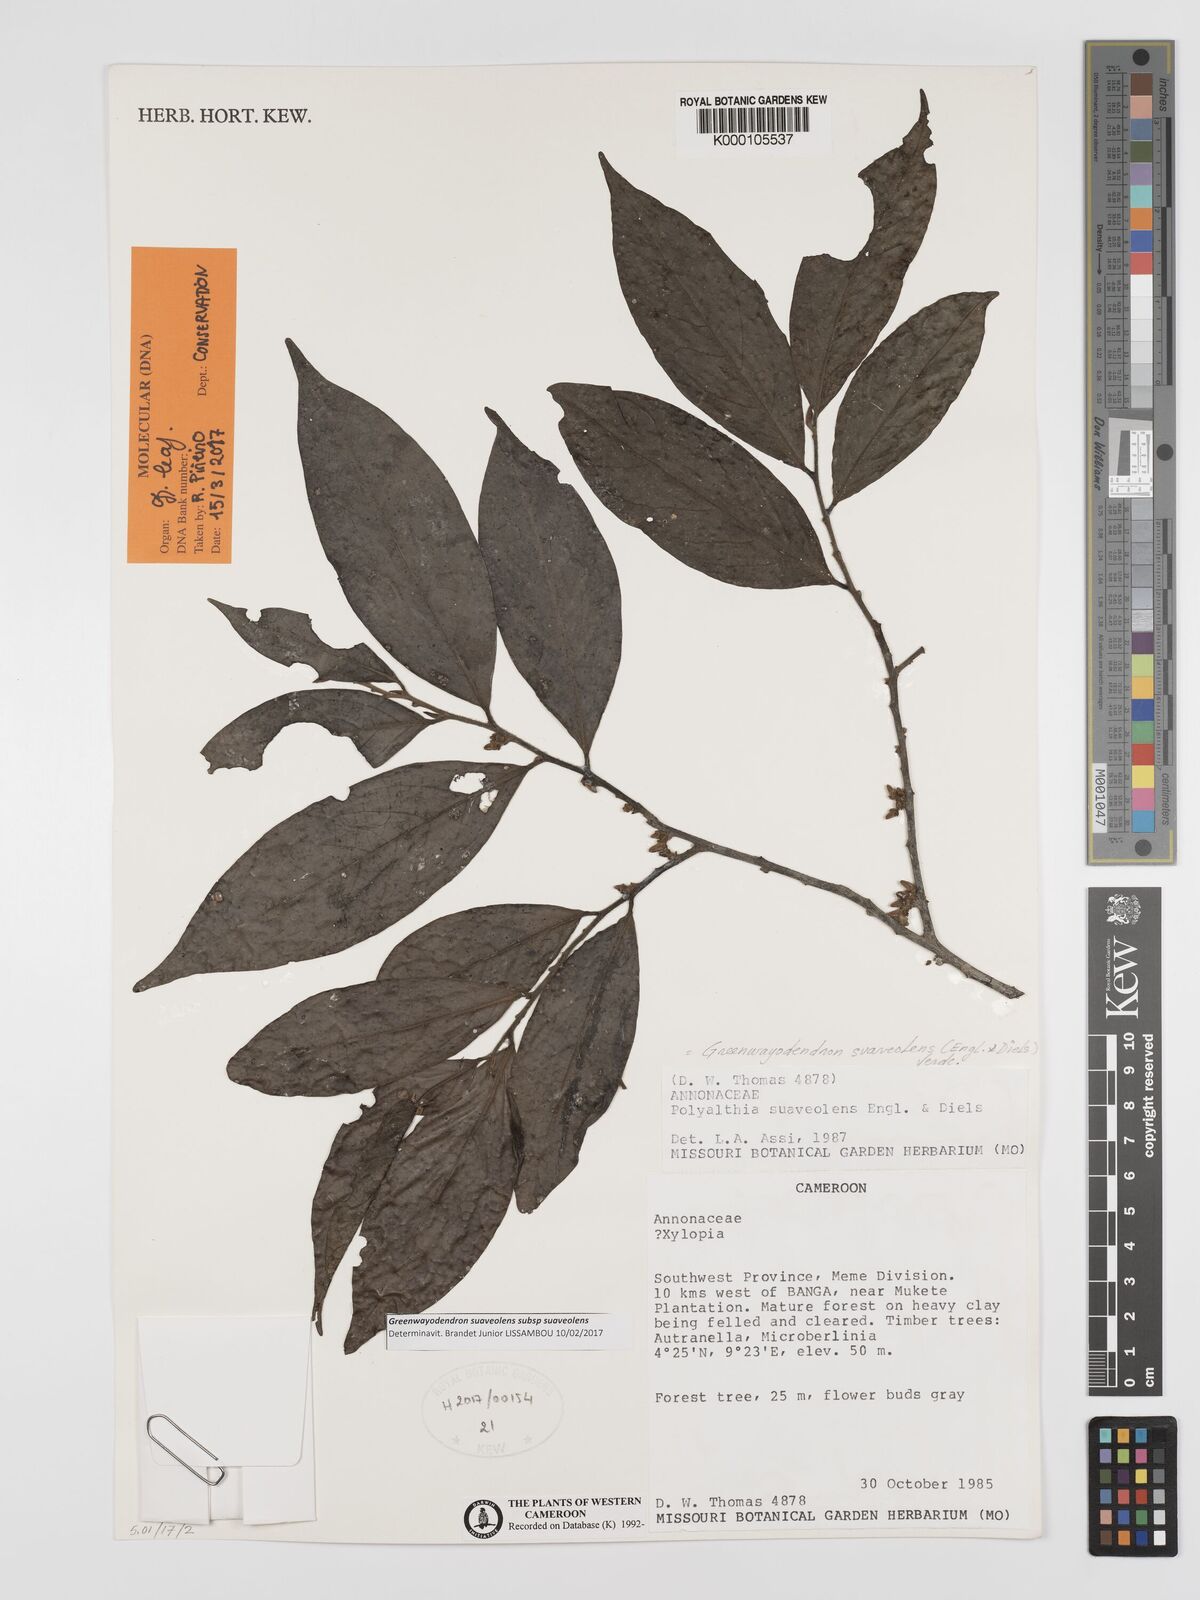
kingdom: Plantae
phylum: Tracheophyta
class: Magnoliopsida
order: Magnoliales
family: Annonaceae
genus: Greenwayodendron
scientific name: Greenwayodendron suaveolens
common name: Molinda
